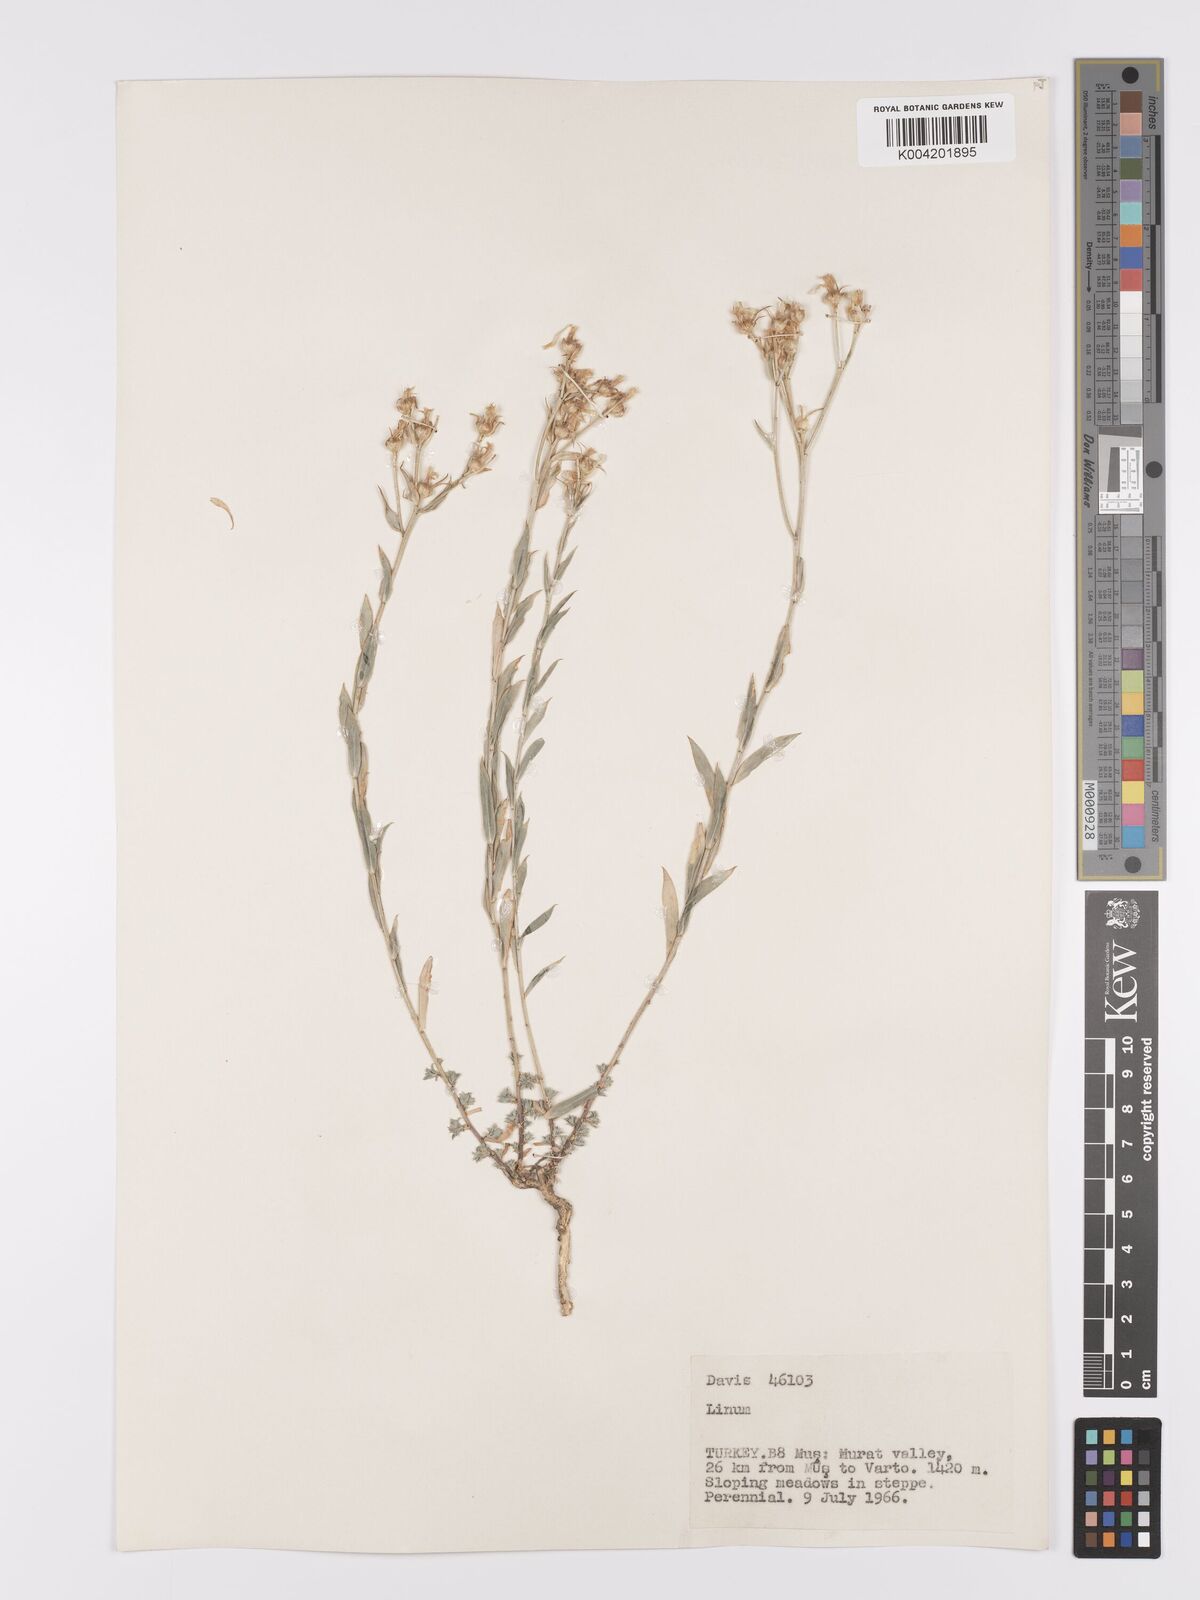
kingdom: Plantae
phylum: Tracheophyta
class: Magnoliopsida
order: Malpighiales
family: Linaceae
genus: Linum
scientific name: Linum
